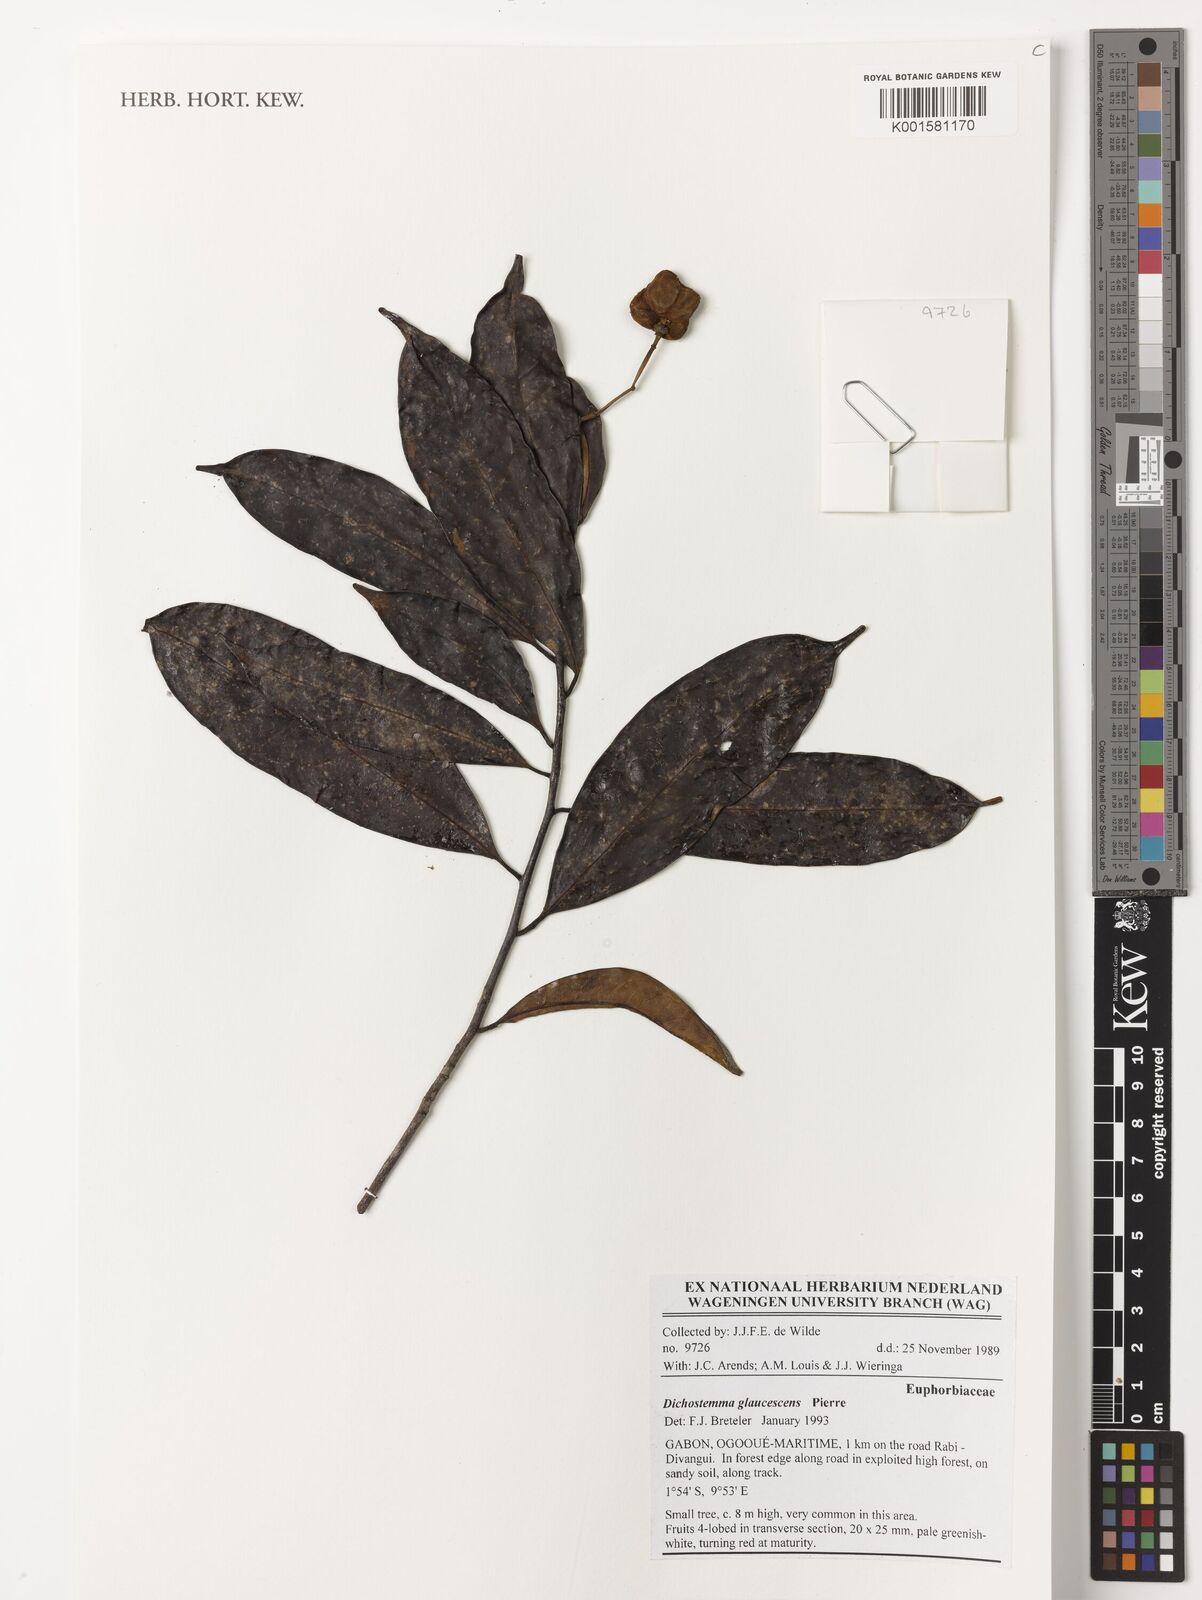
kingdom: Plantae
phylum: Tracheophyta
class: Magnoliopsida
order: Malpighiales
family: Euphorbiaceae
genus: Dichostemma
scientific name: Dichostemma glaucescens
